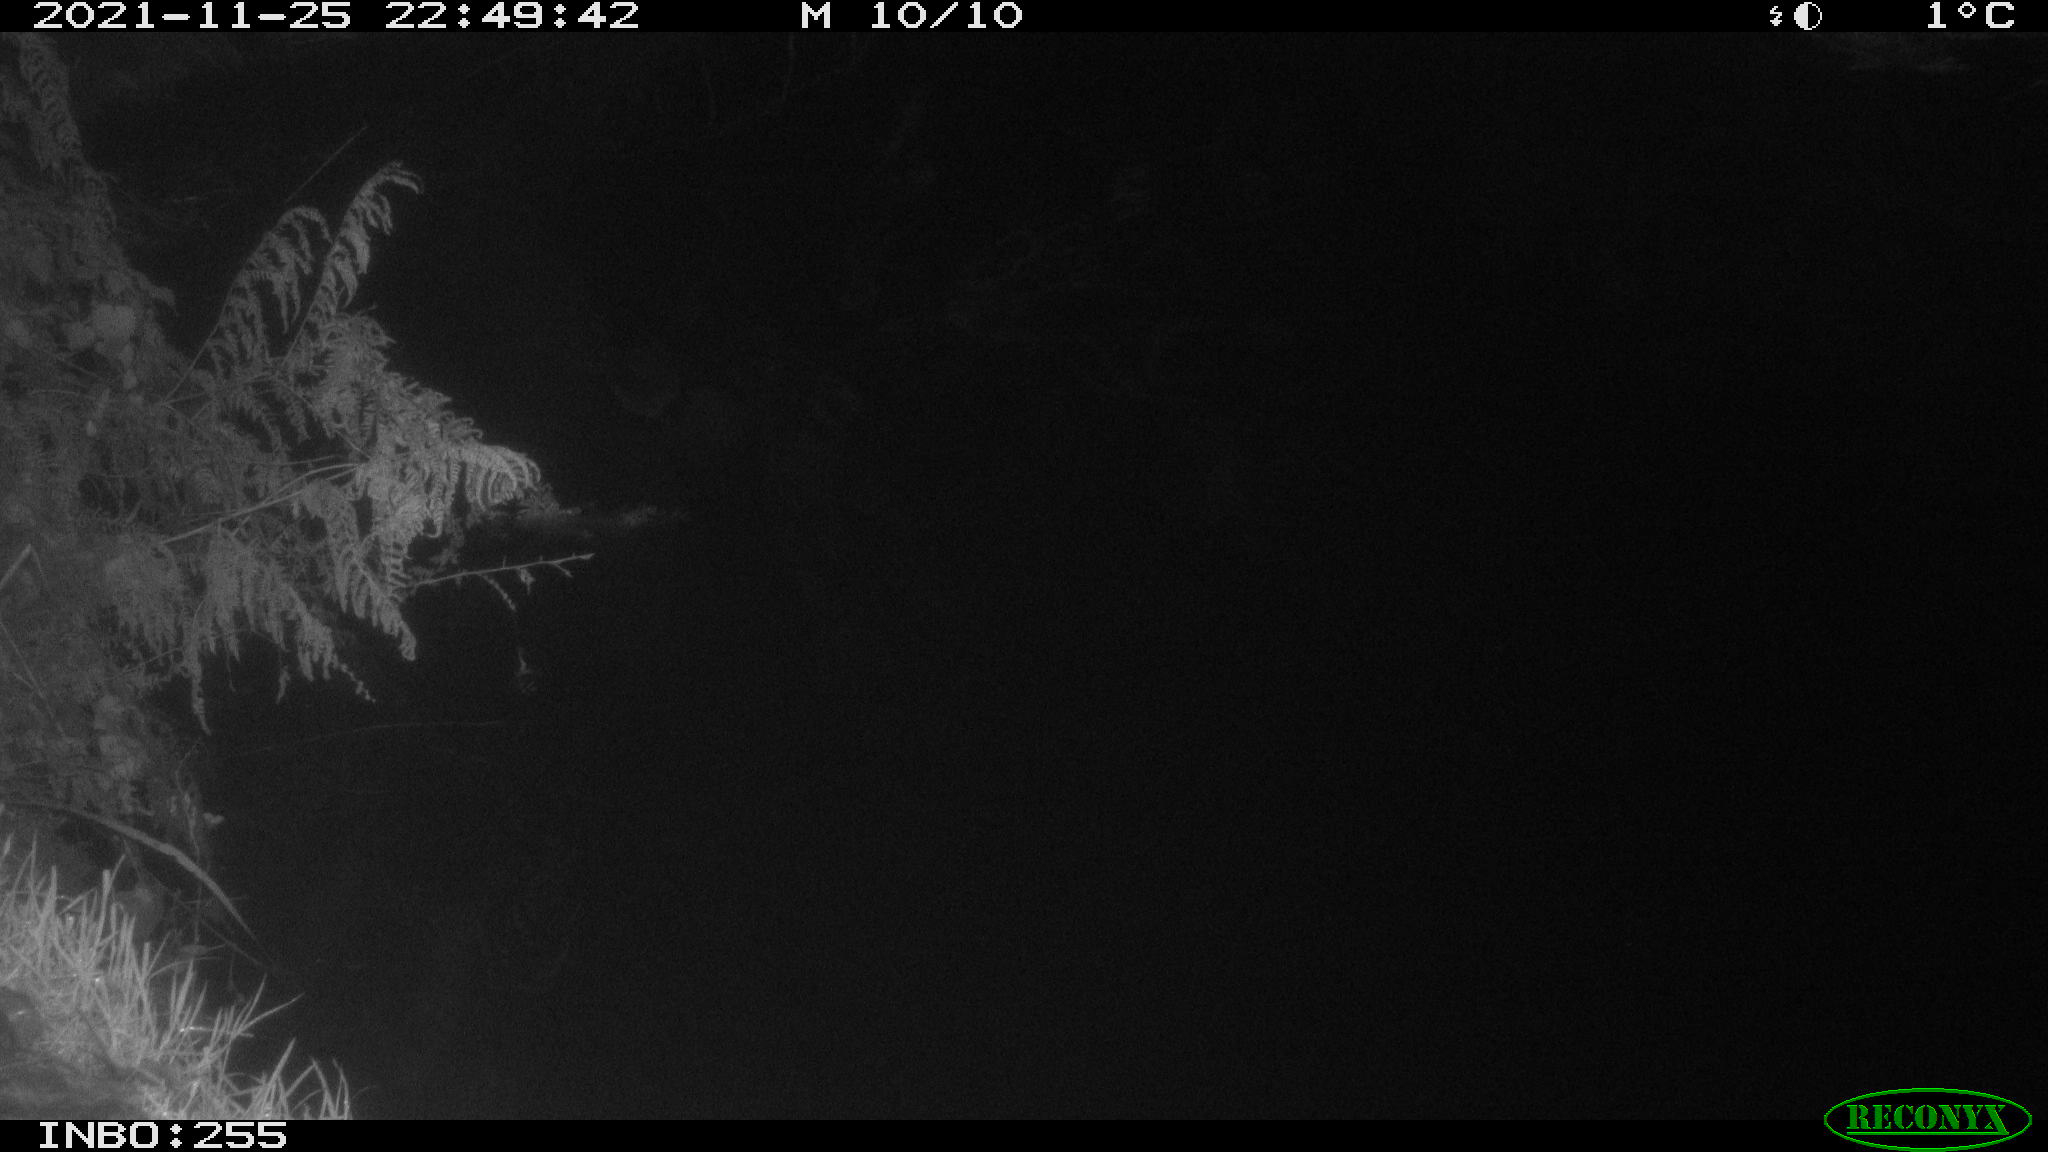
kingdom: Animalia
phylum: Chordata
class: Aves
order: Anseriformes
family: Anatidae
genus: Anas
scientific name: Anas platyrhynchos
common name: Mallard
